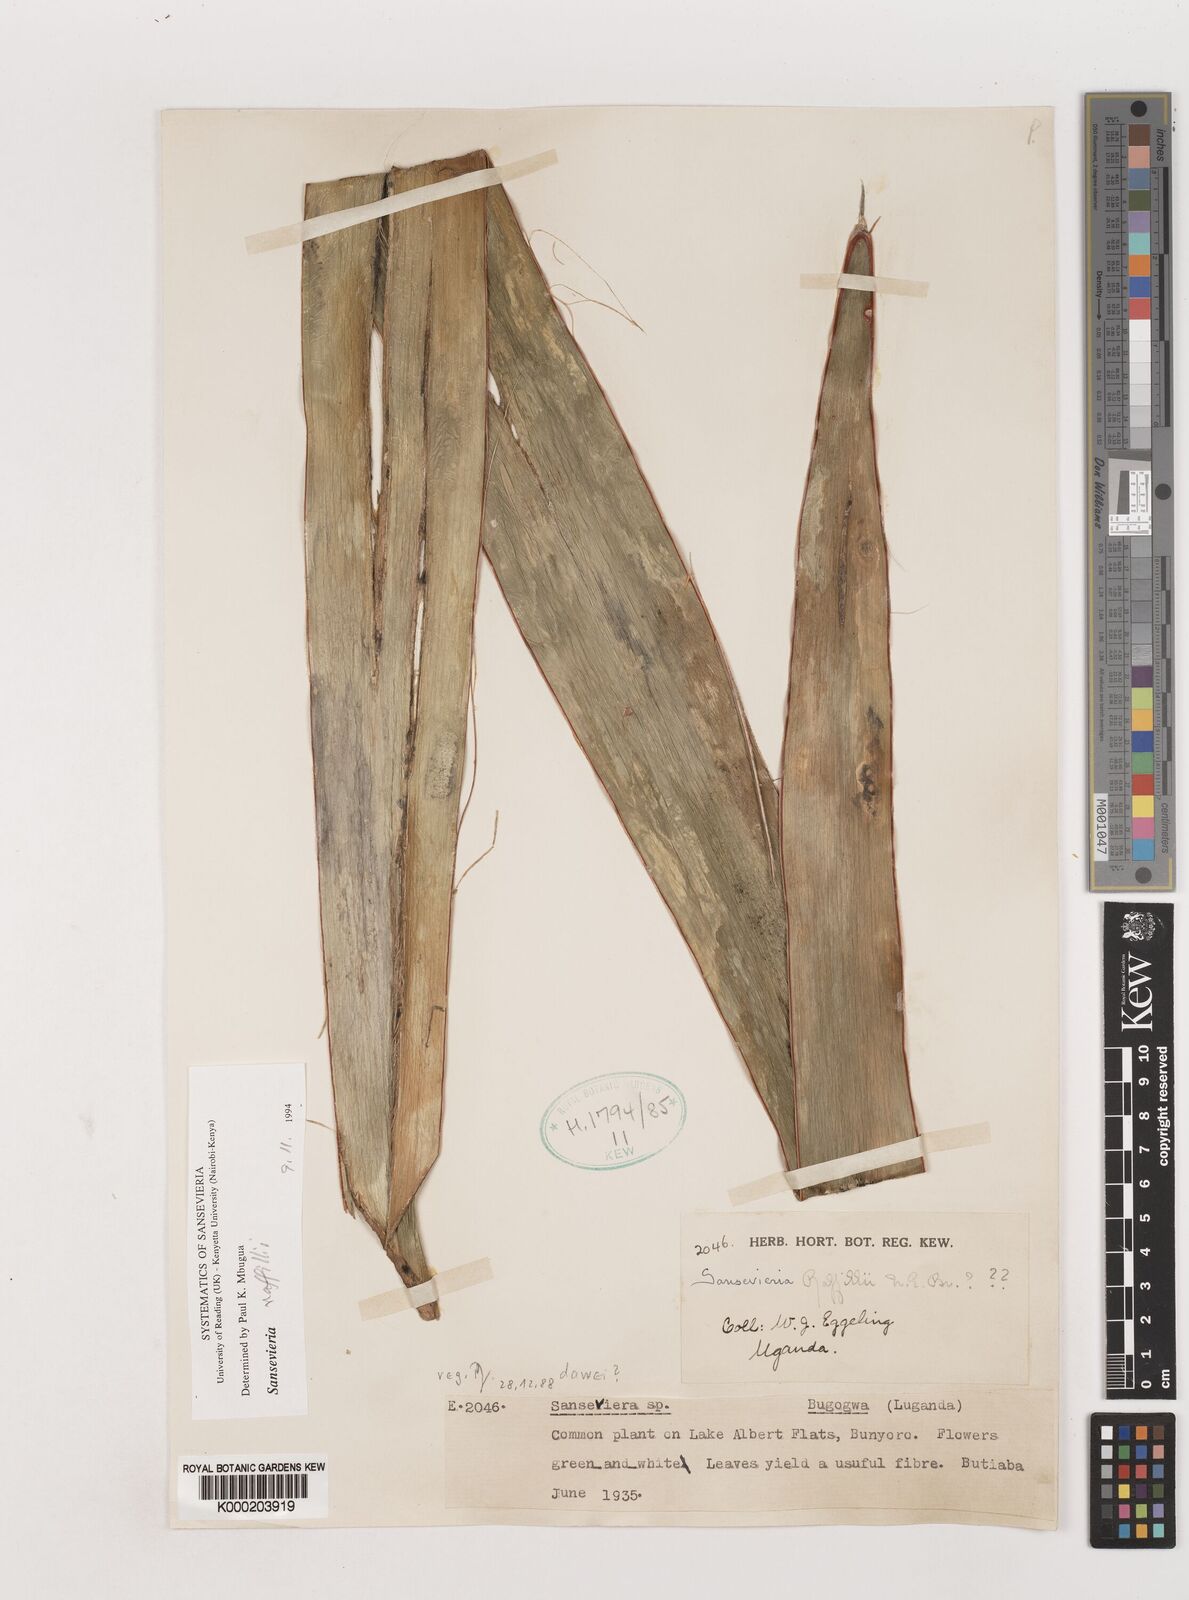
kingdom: Plantae
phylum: Tracheophyta
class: Liliopsida
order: Asparagales
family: Asparagaceae
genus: Dracaena
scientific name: Dracaena raffillii
